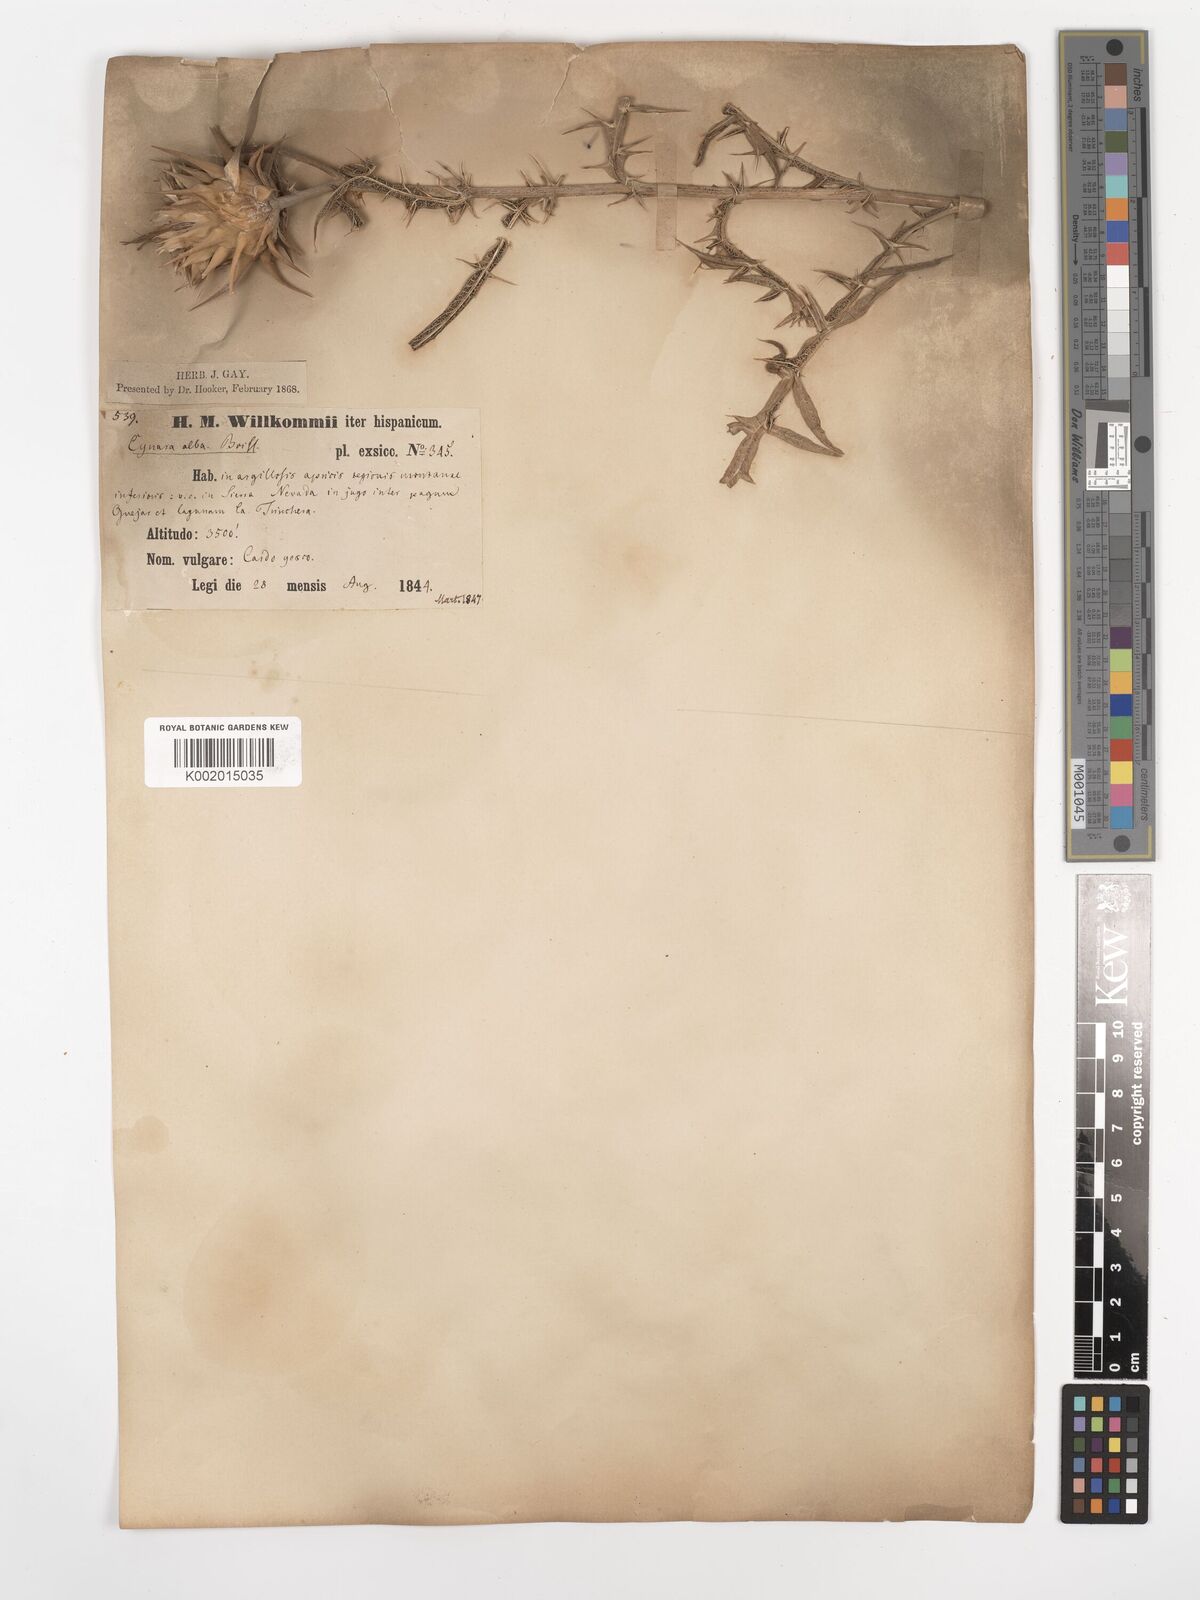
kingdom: Plantae
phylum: Tracheophyta
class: Magnoliopsida
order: Asterales
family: Asteraceae
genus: Cynara
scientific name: Cynara baetica
